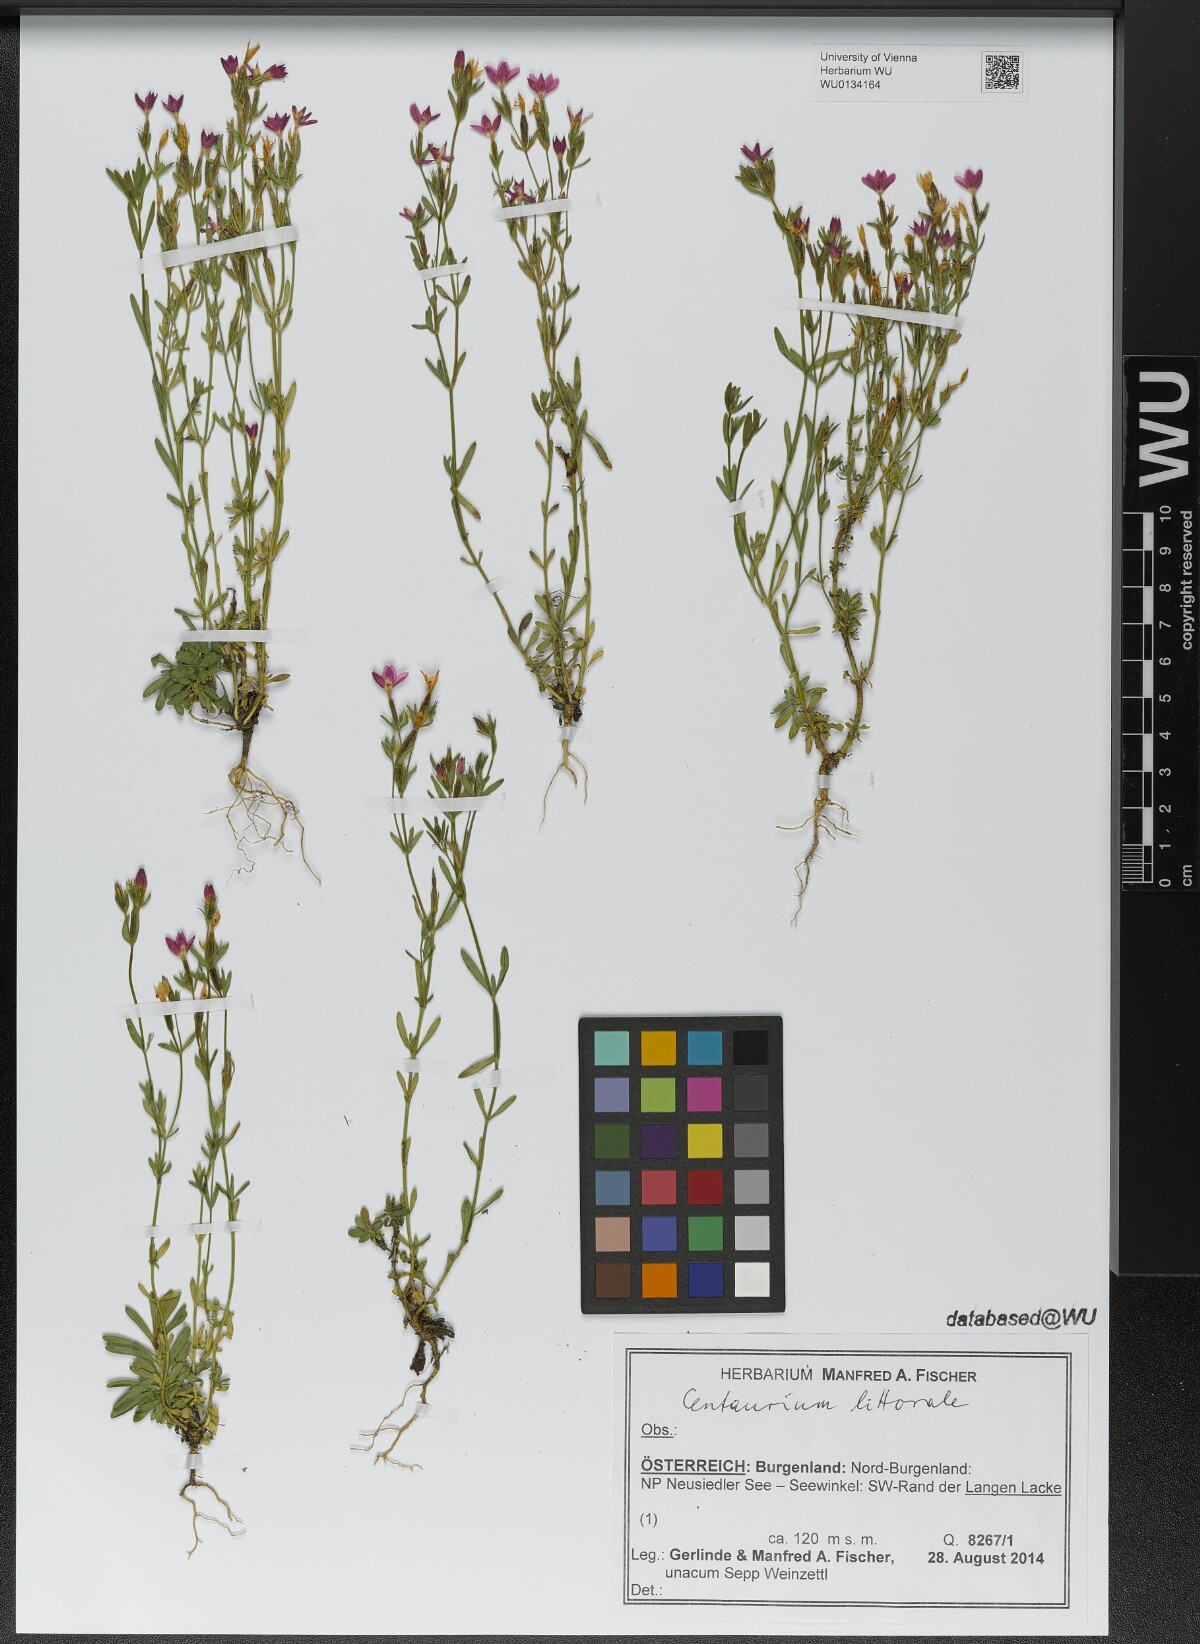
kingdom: Plantae
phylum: Tracheophyta
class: Magnoliopsida
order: Gentianales
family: Gentianaceae
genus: Centaurium
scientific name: Centaurium littorale
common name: Seaside centaury
